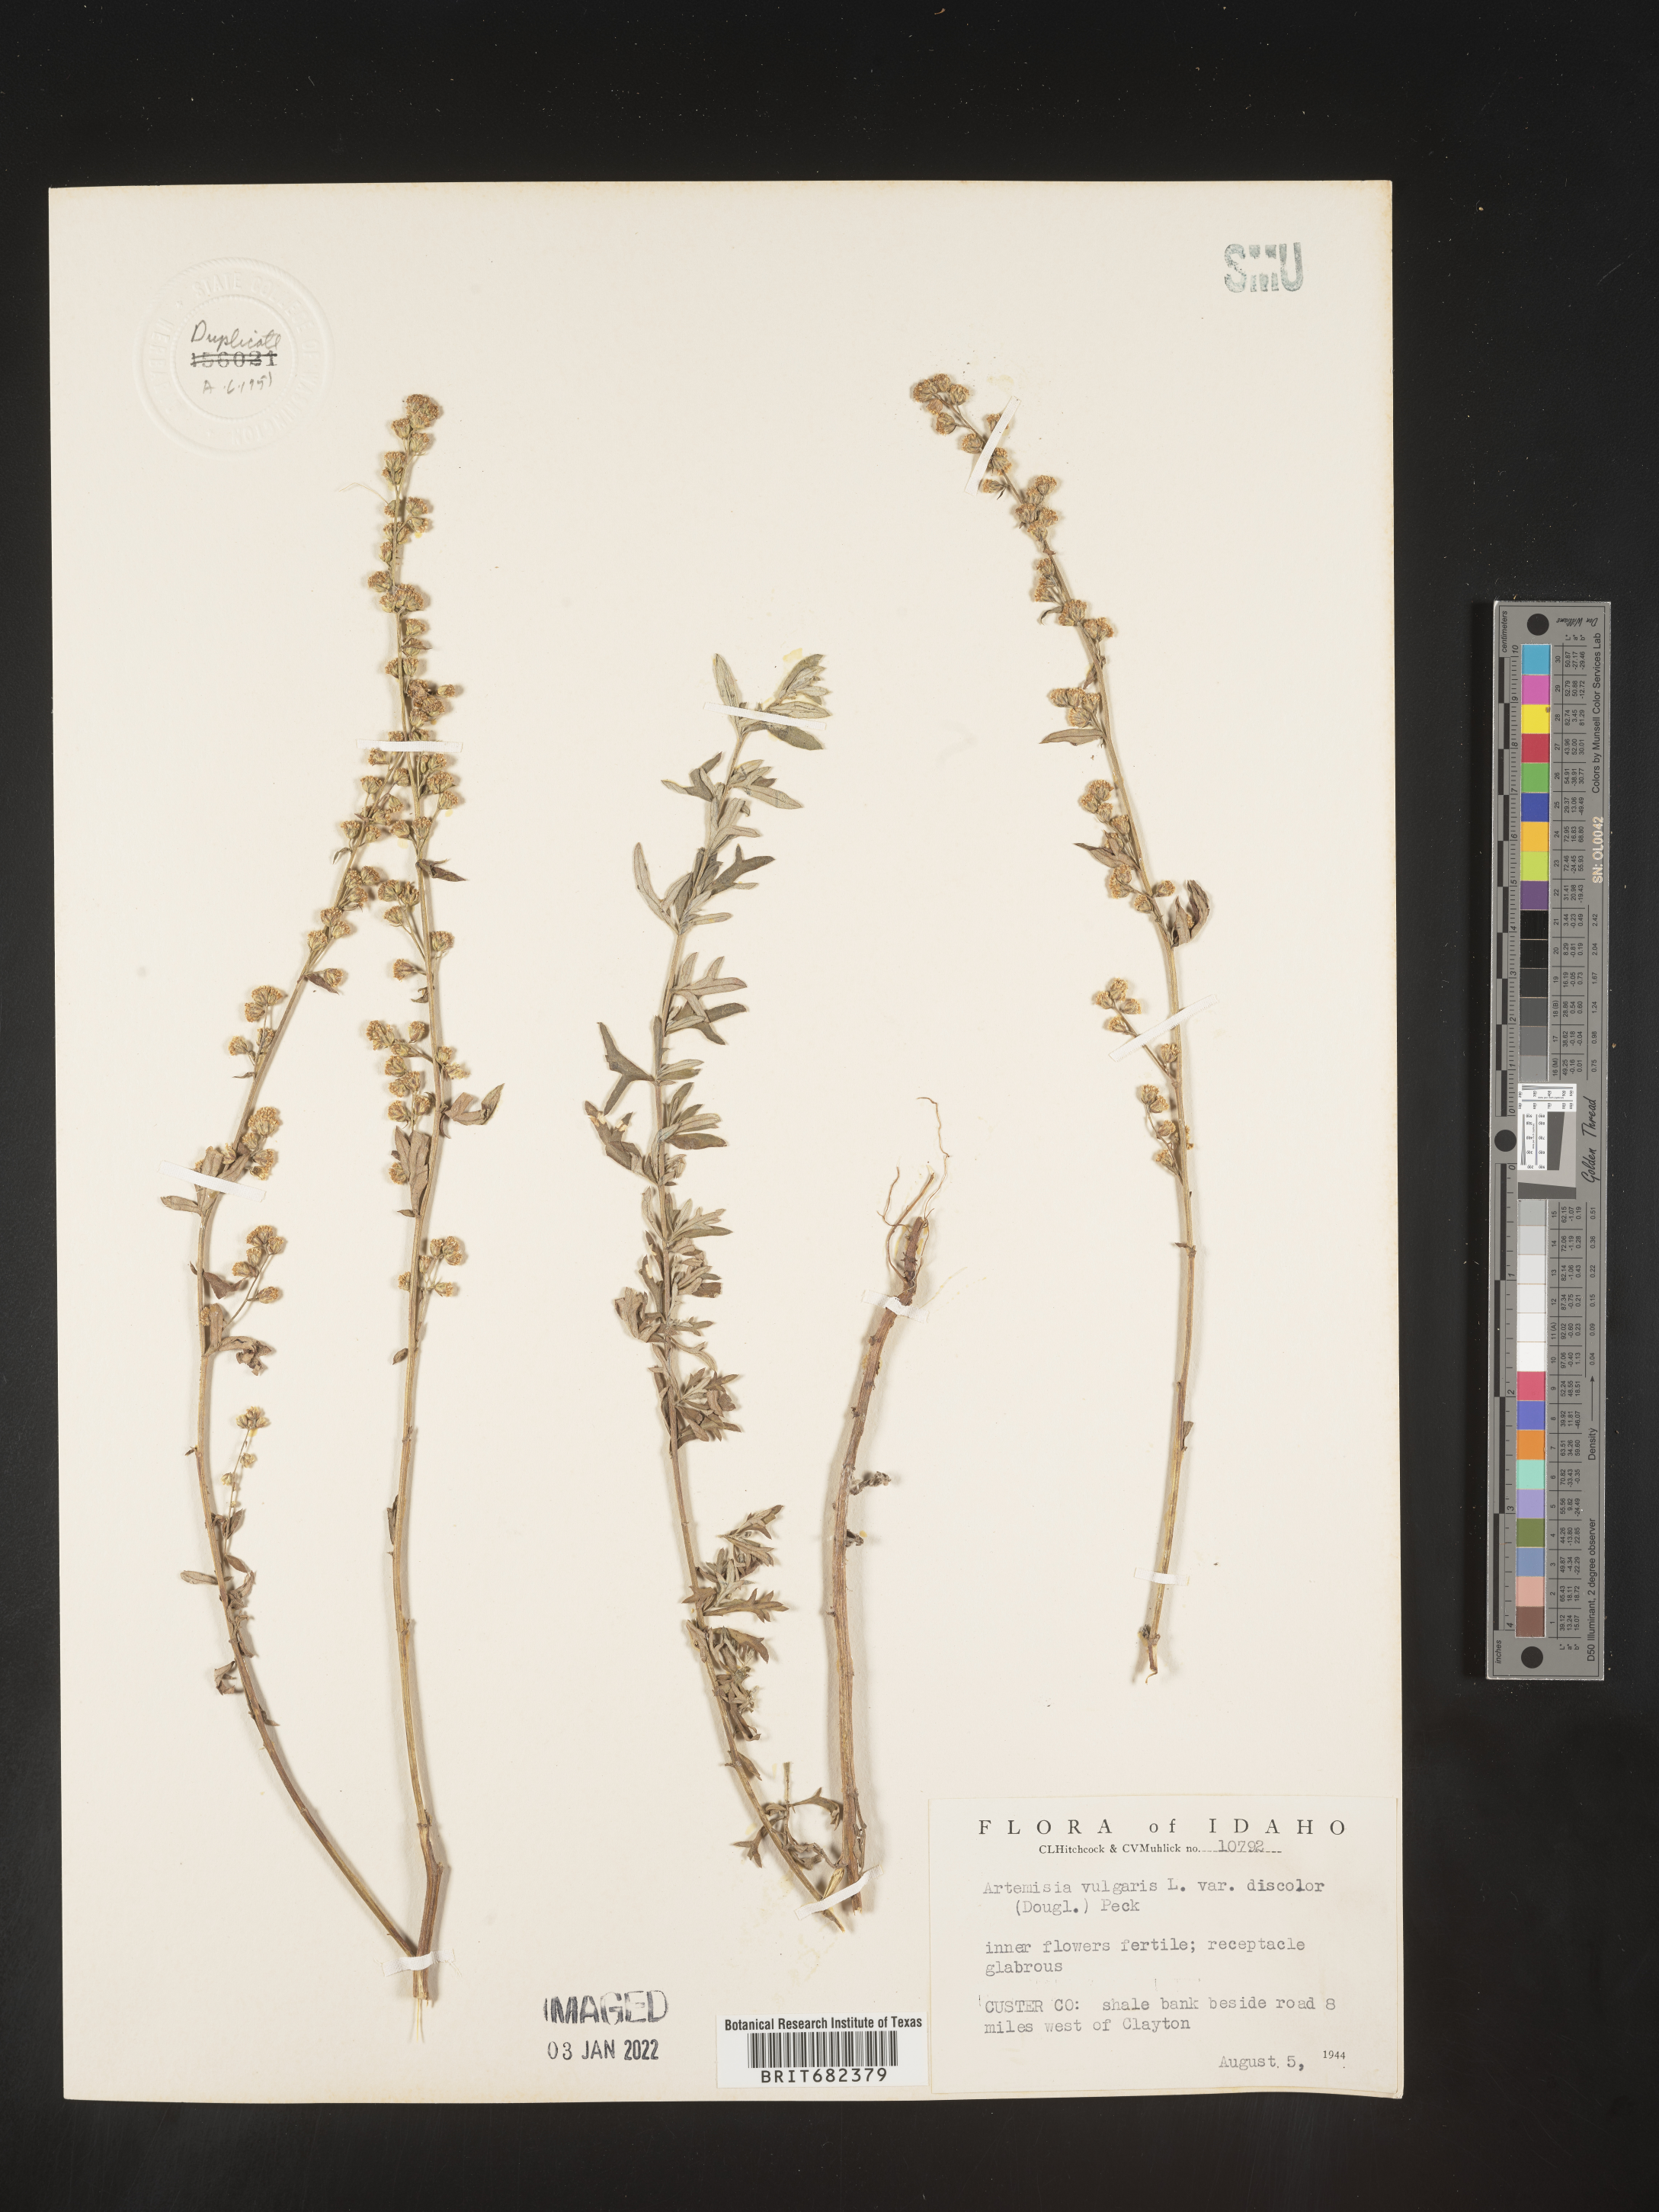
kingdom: Plantae
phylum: Tracheophyta
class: Magnoliopsida
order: Asterales
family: Asteraceae
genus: Artemisia
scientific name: Artemisia vulgaris
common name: Mugwort
